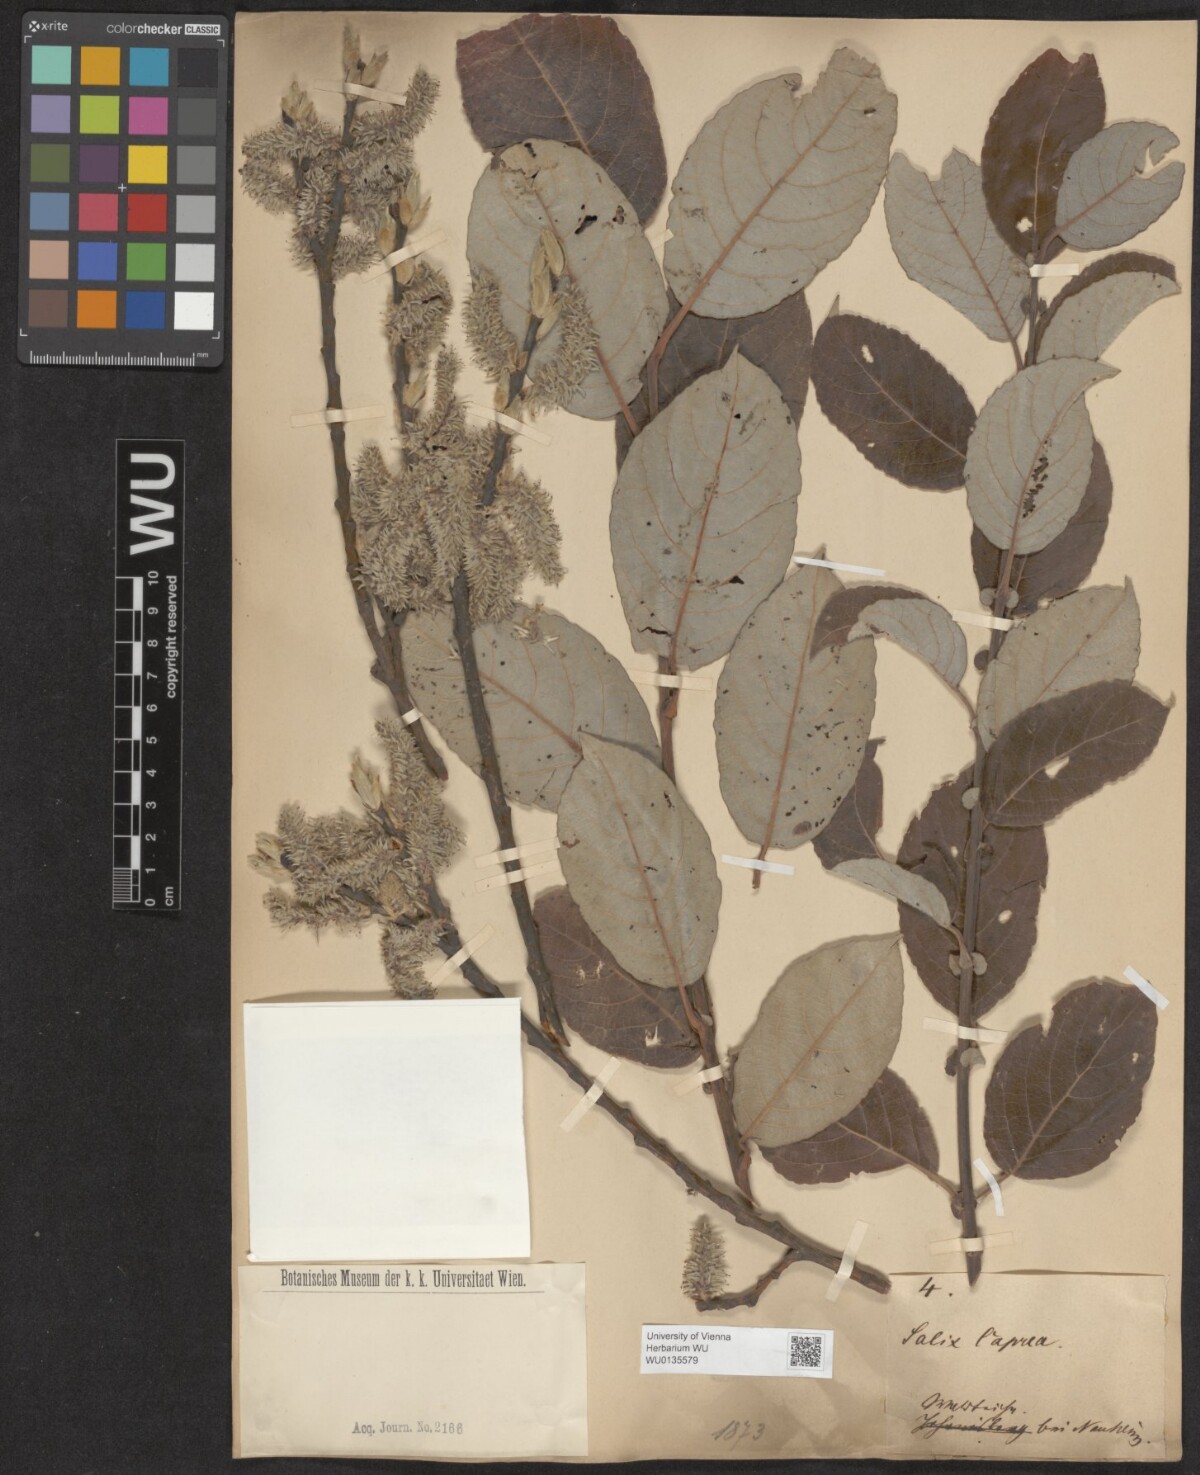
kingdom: Plantae
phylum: Tracheophyta
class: Magnoliopsida
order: Malpighiales
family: Salicaceae
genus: Salix
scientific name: Salix caprea
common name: Goat willow
